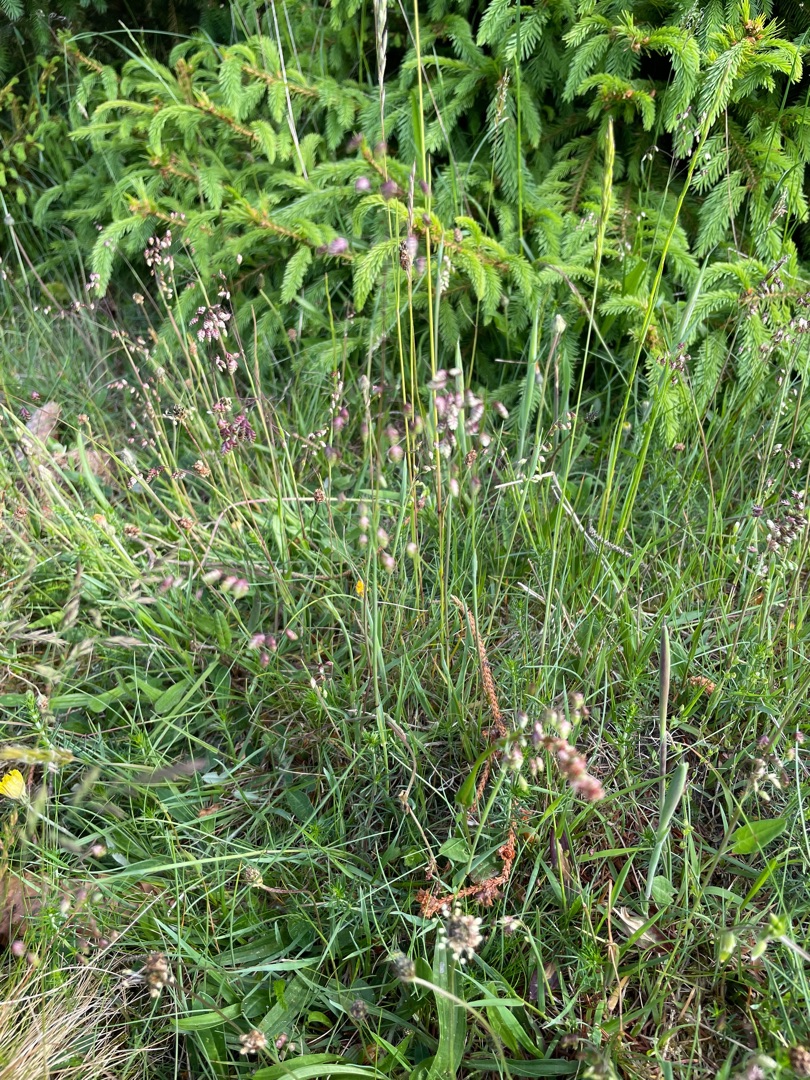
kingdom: Plantae
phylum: Tracheophyta
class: Liliopsida
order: Poales
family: Poaceae
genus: Briza
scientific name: Briza media
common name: Hjertegræs
